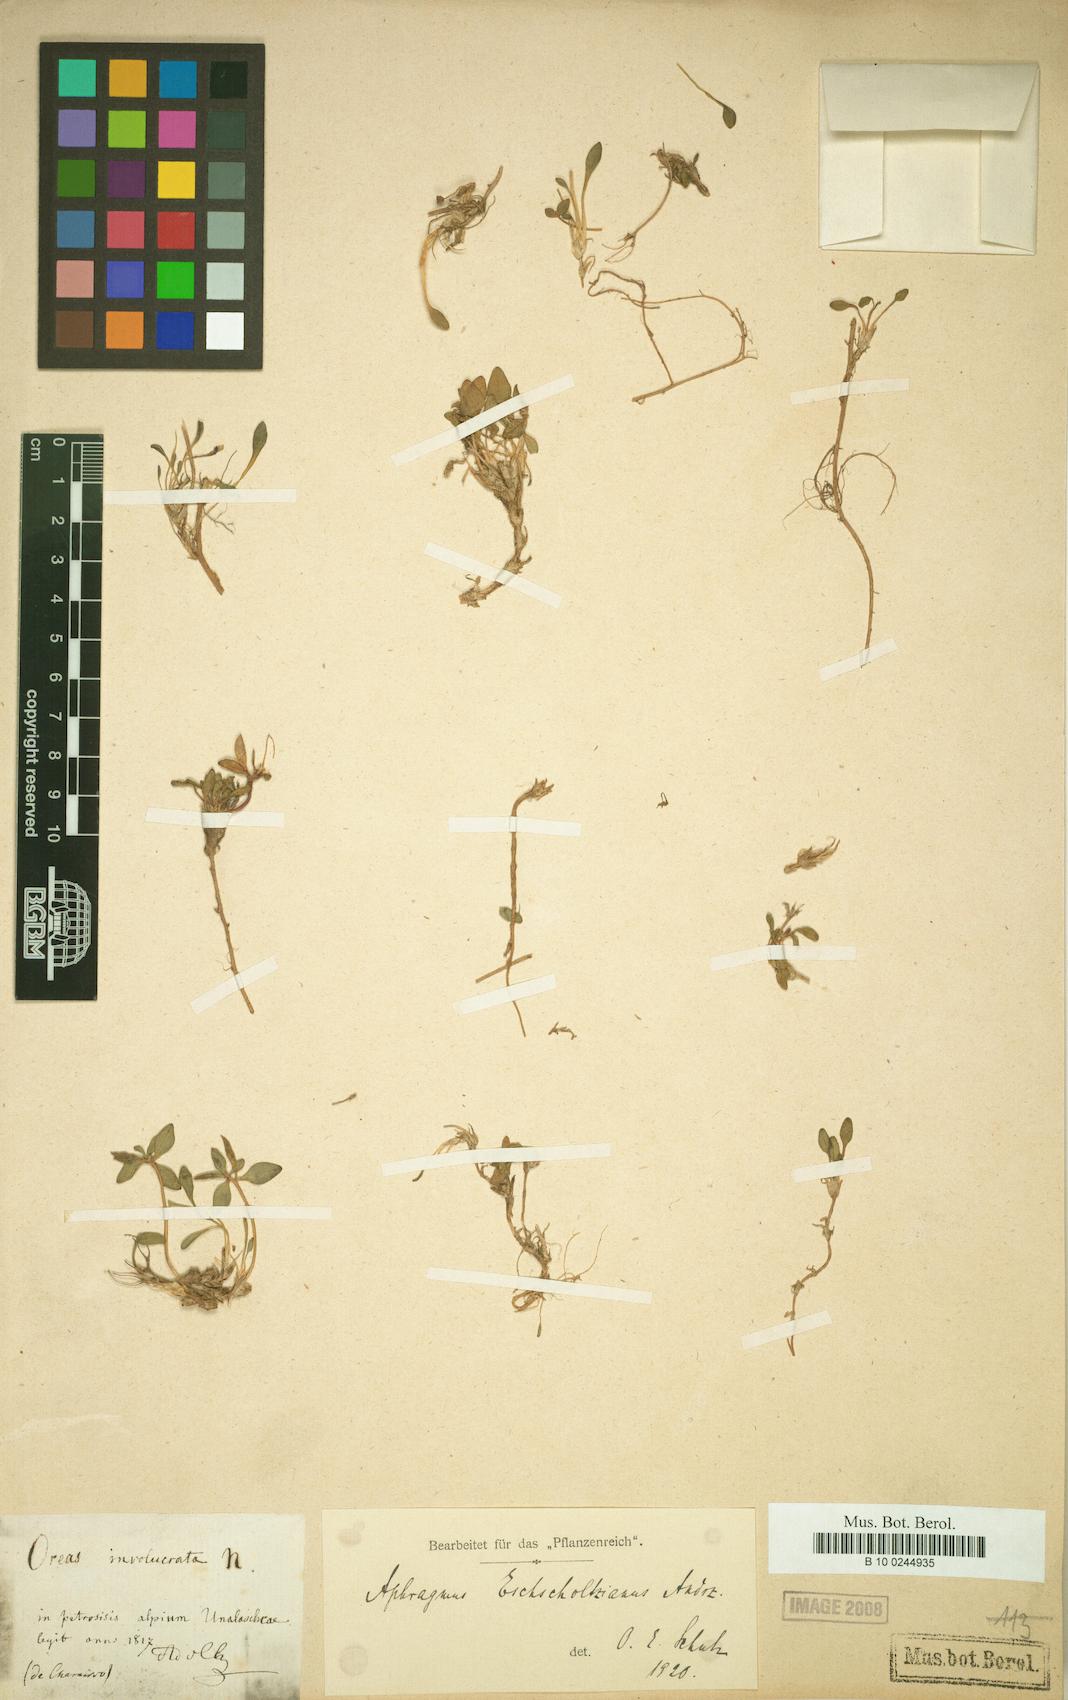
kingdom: Plantae
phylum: Tracheophyta
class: Magnoliopsida
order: Brassicales
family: Brassicaceae
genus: Aphragmus
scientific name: Aphragmus eschscholtzianus
